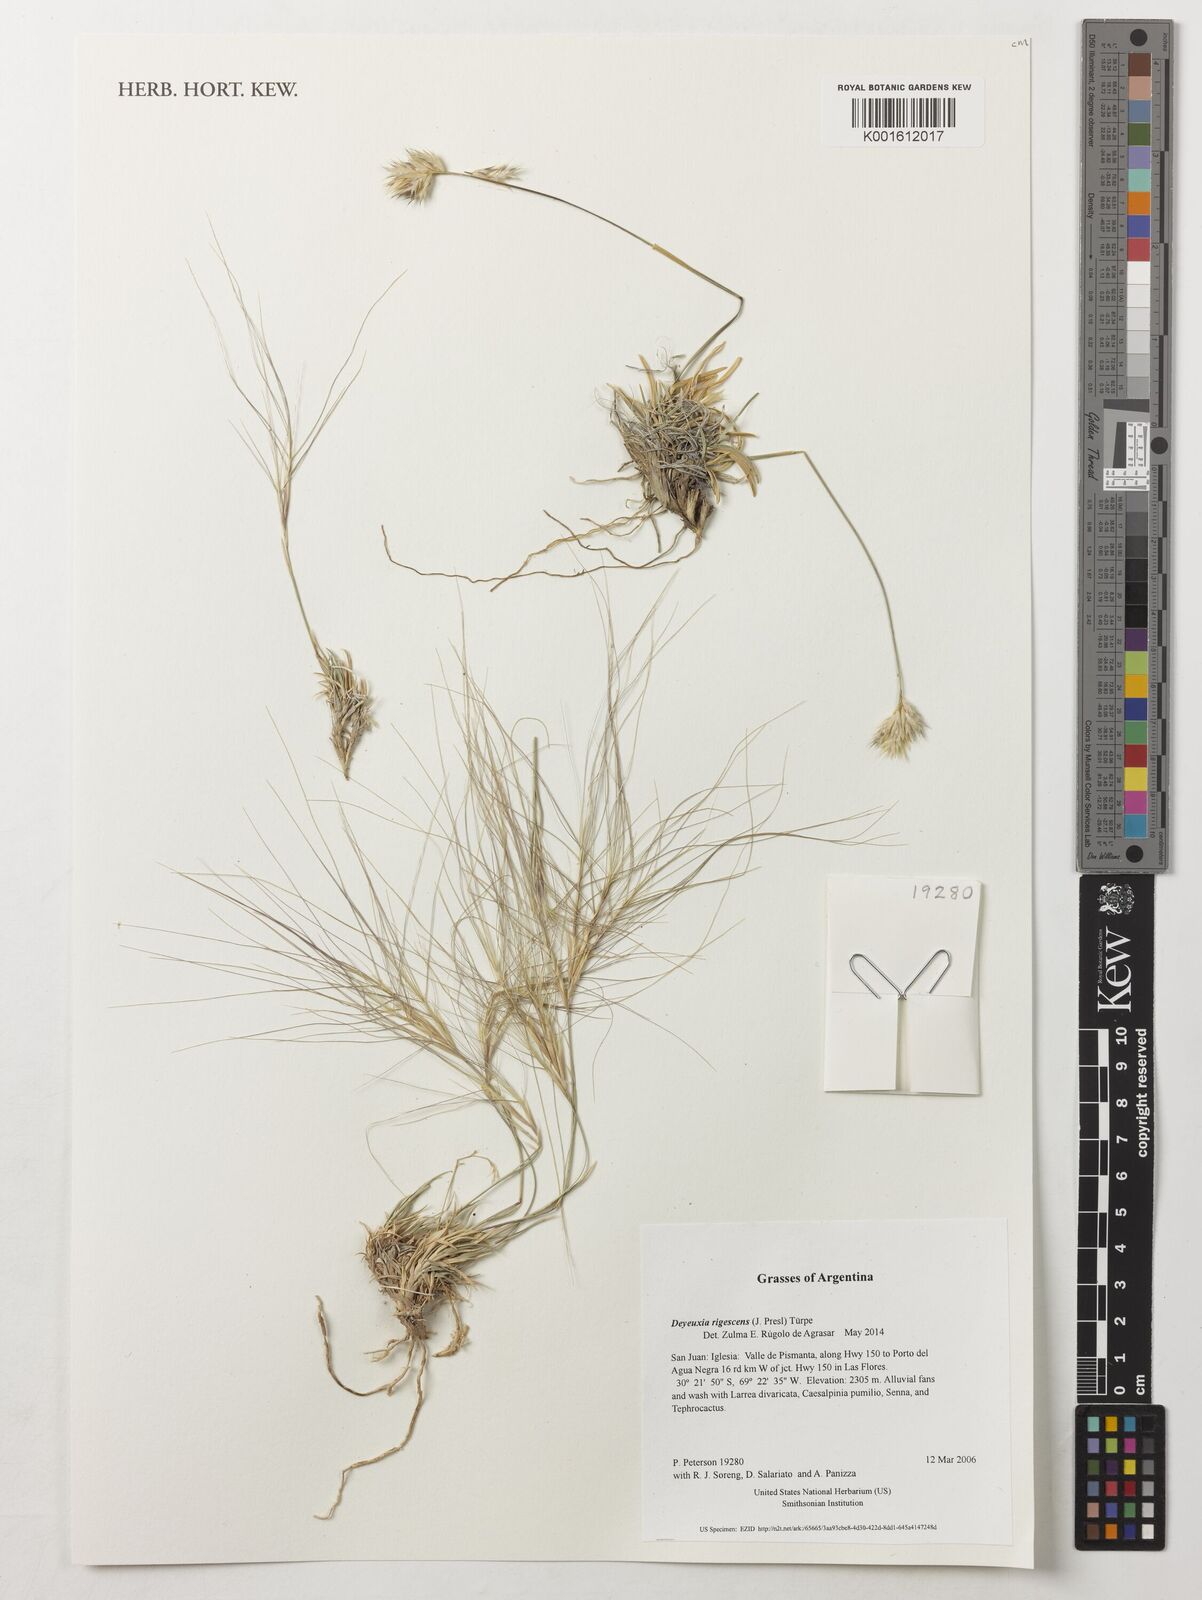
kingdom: Plantae
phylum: Tracheophyta
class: Liliopsida
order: Poales
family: Poaceae
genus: Cinnagrostis
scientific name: Cinnagrostis rigescens
